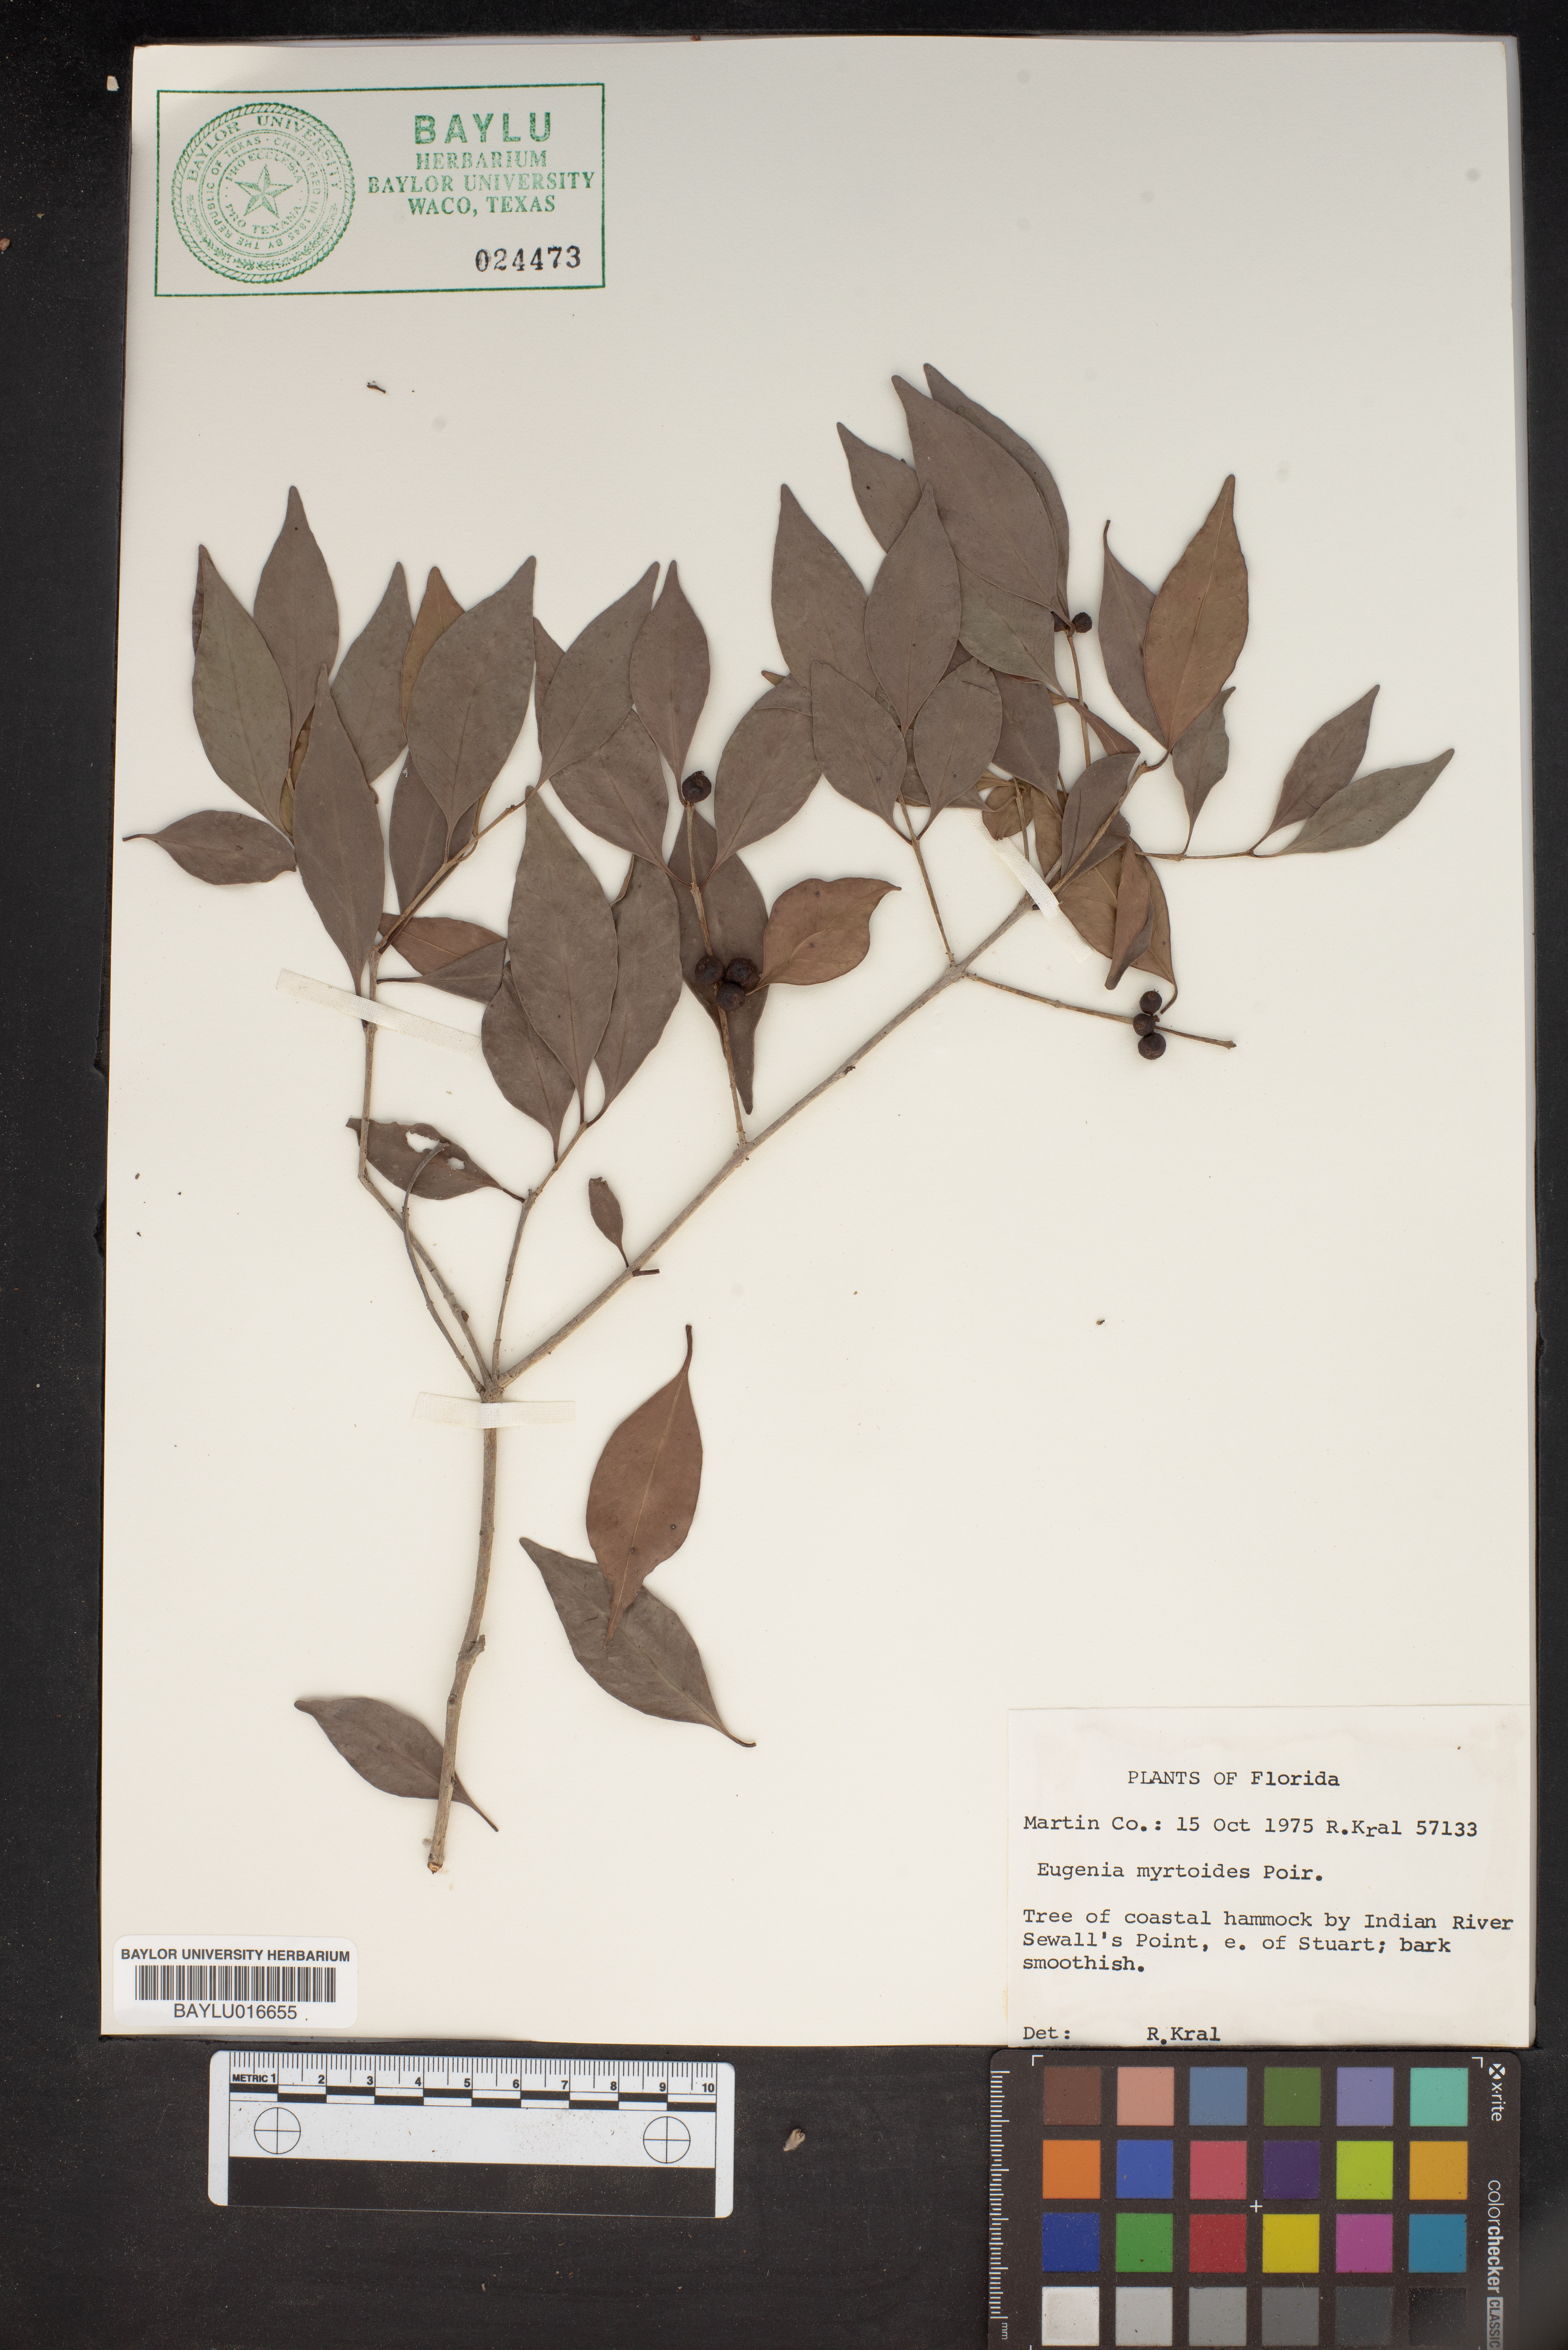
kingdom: Plantae
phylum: Tracheophyta
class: Magnoliopsida
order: Myrtales
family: Myrtaceae
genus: Eugenia
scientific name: Eugenia coronata
